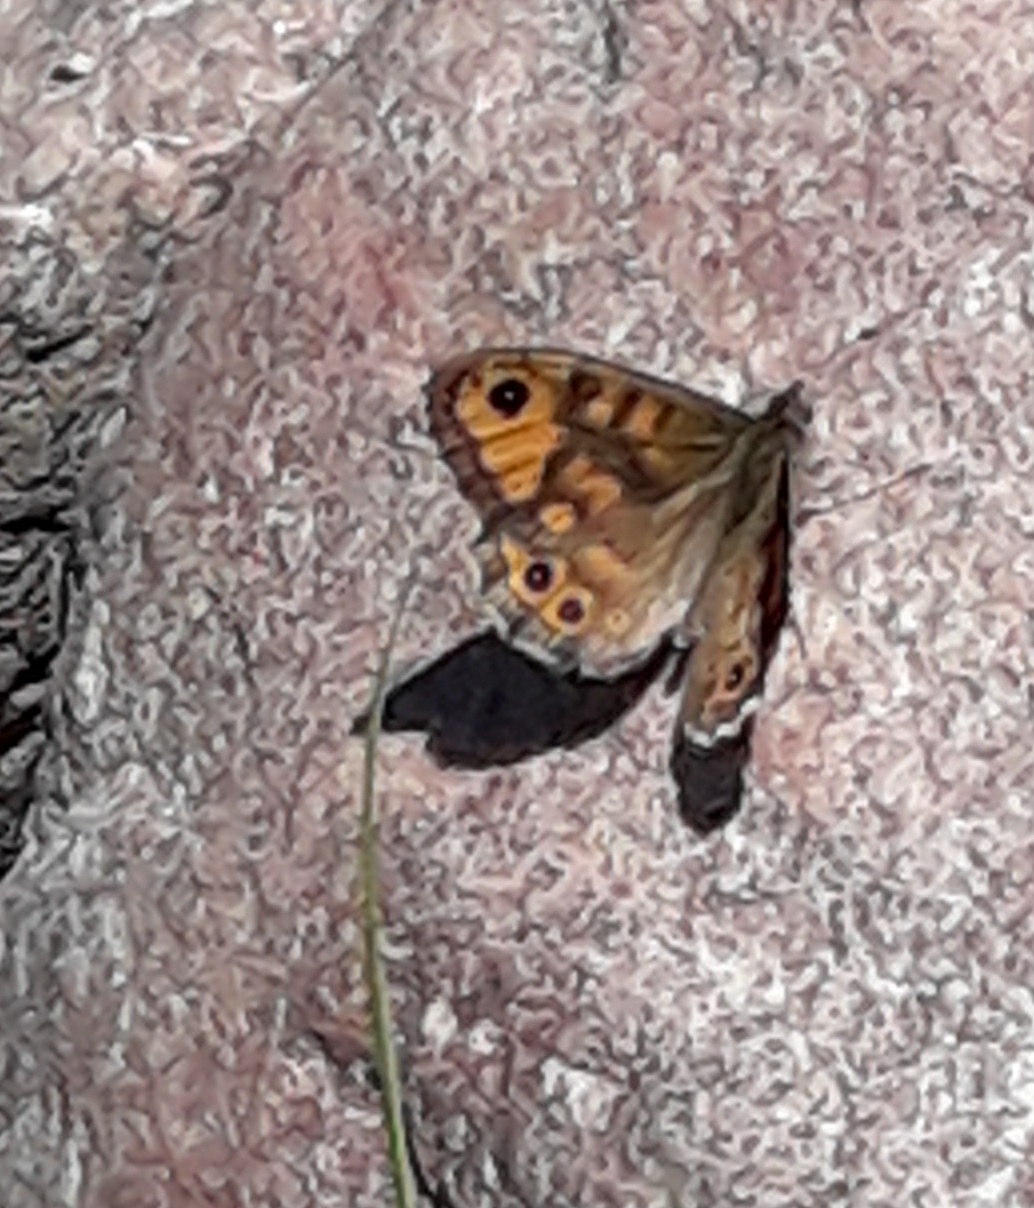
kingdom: Animalia
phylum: Arthropoda
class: Insecta
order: Lepidoptera
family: Nymphalidae
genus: Pararge
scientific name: Pararge Lasiommata megera
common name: Vejrandøje
